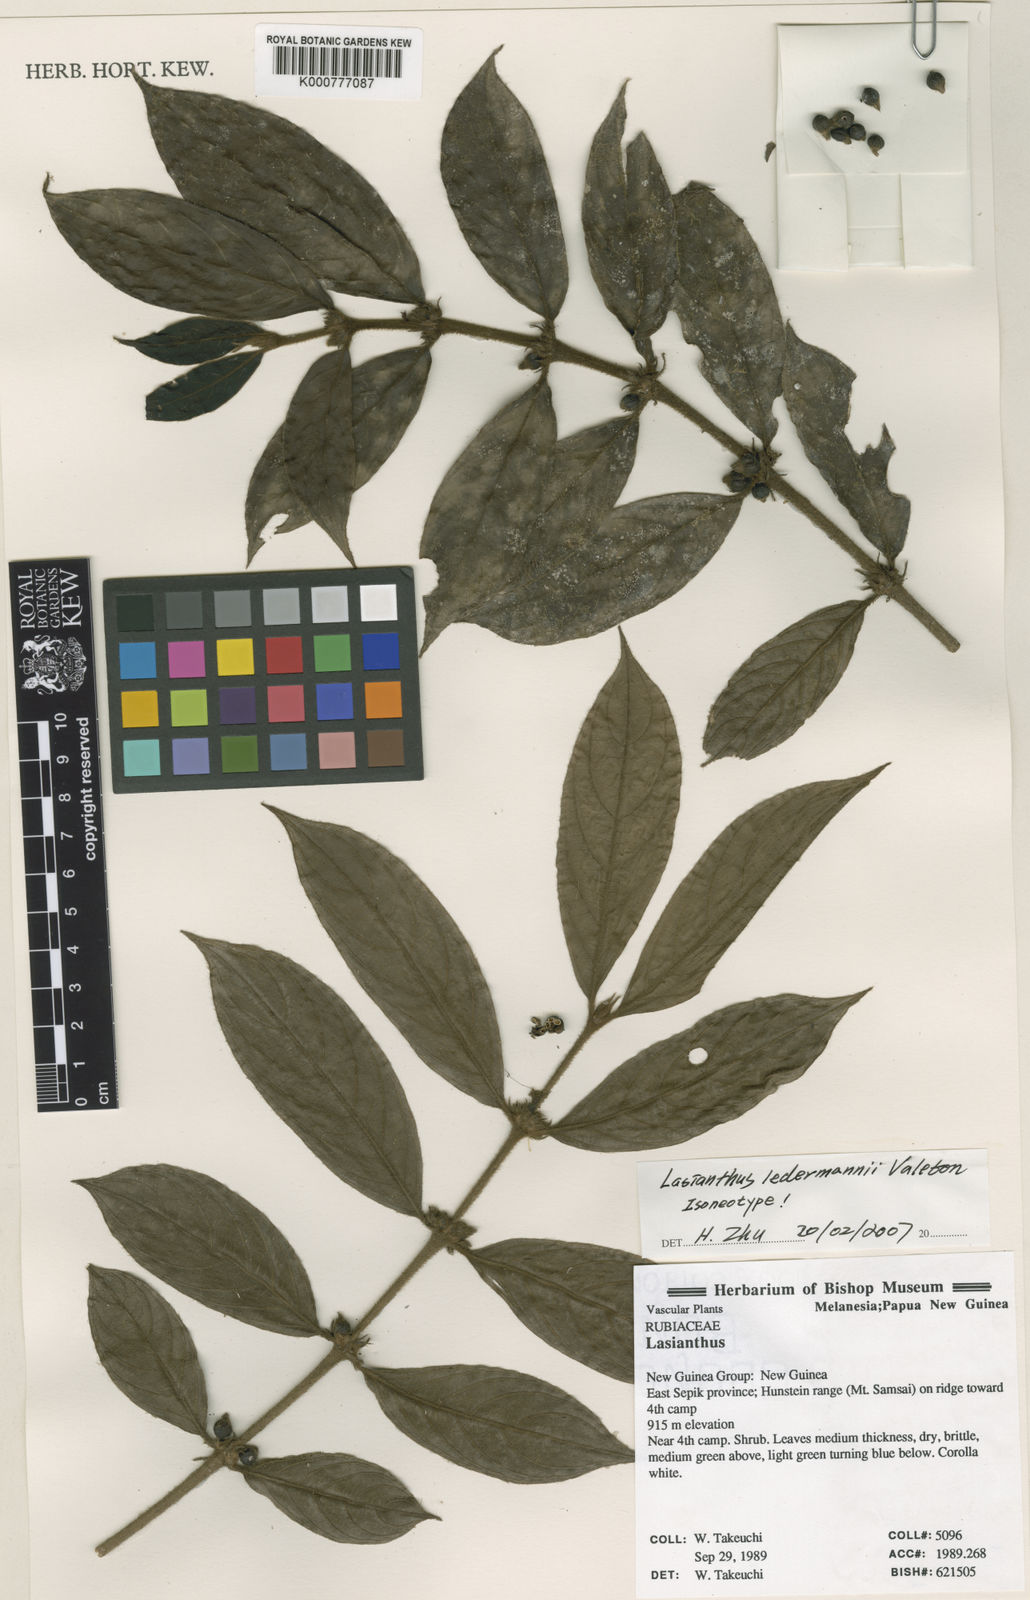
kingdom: Plantae
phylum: Tracheophyta
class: Magnoliopsida
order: Gentianales
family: Rubiaceae
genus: Lasianthus
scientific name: Lasianthus ledermannii
